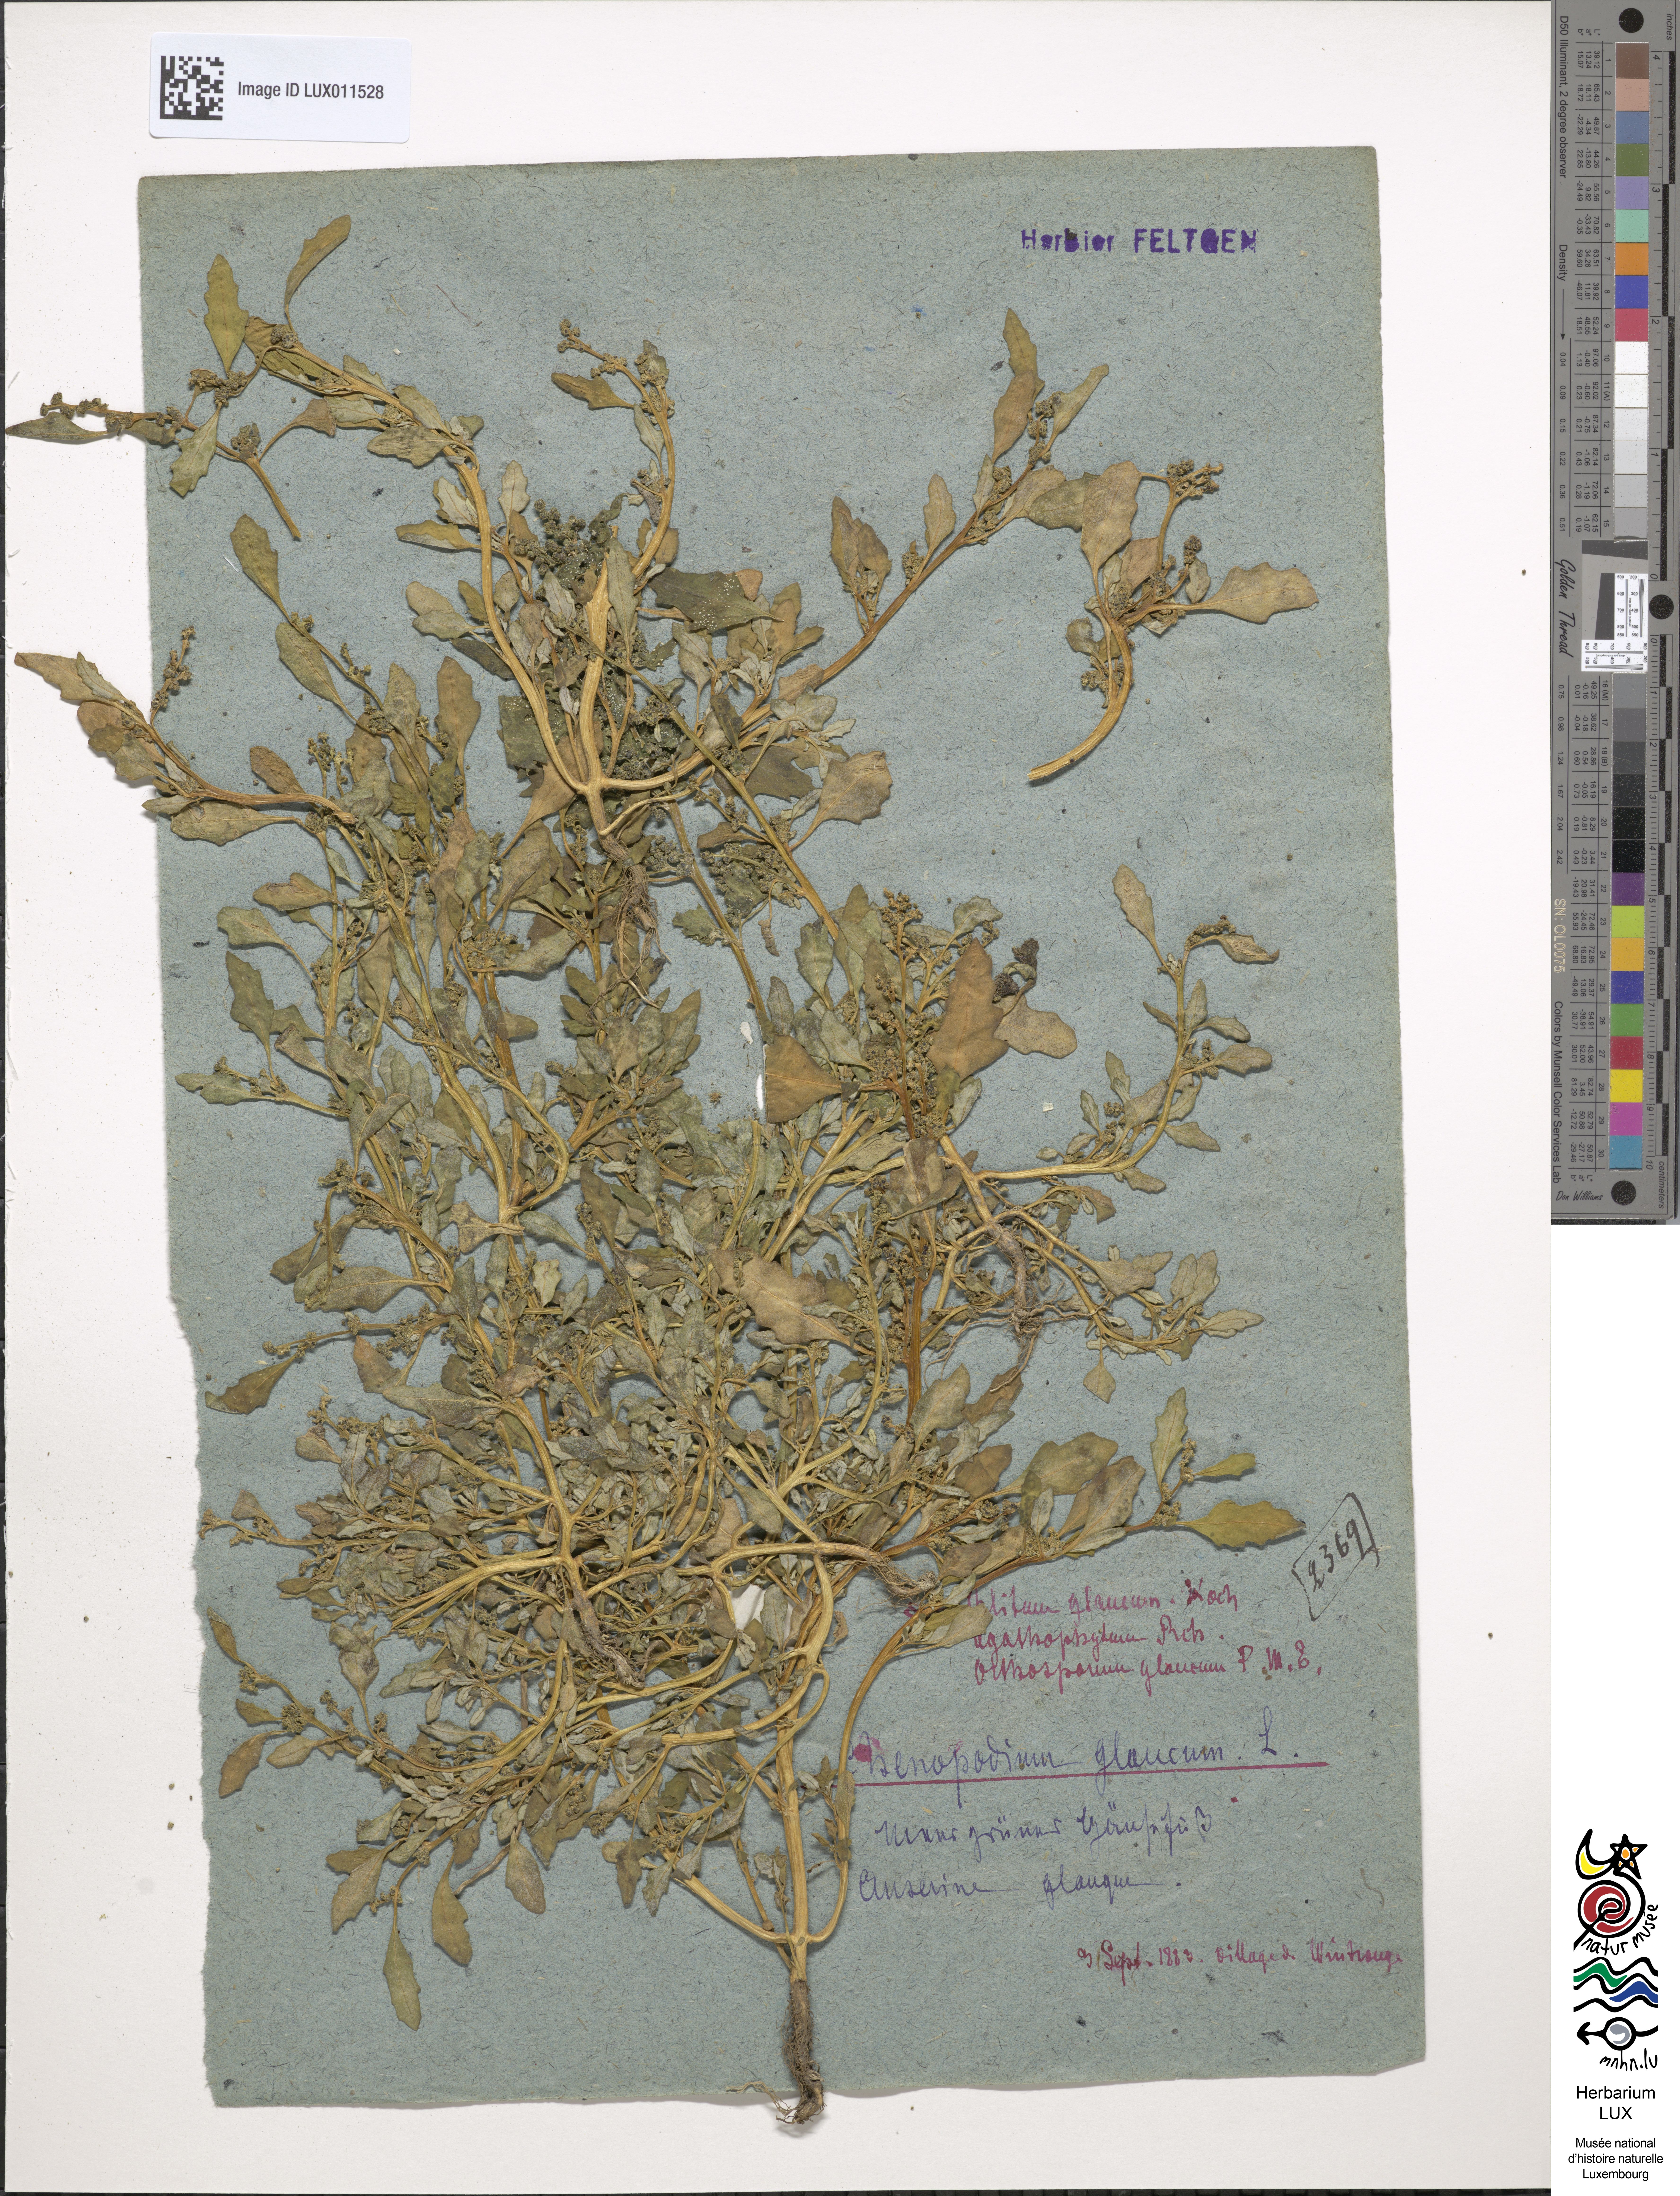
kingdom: Plantae
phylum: Tracheophyta
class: Magnoliopsida
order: Caryophyllales
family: Amaranthaceae
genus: Oxybasis
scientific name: Oxybasis glauca
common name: Glaucous goosefoot
